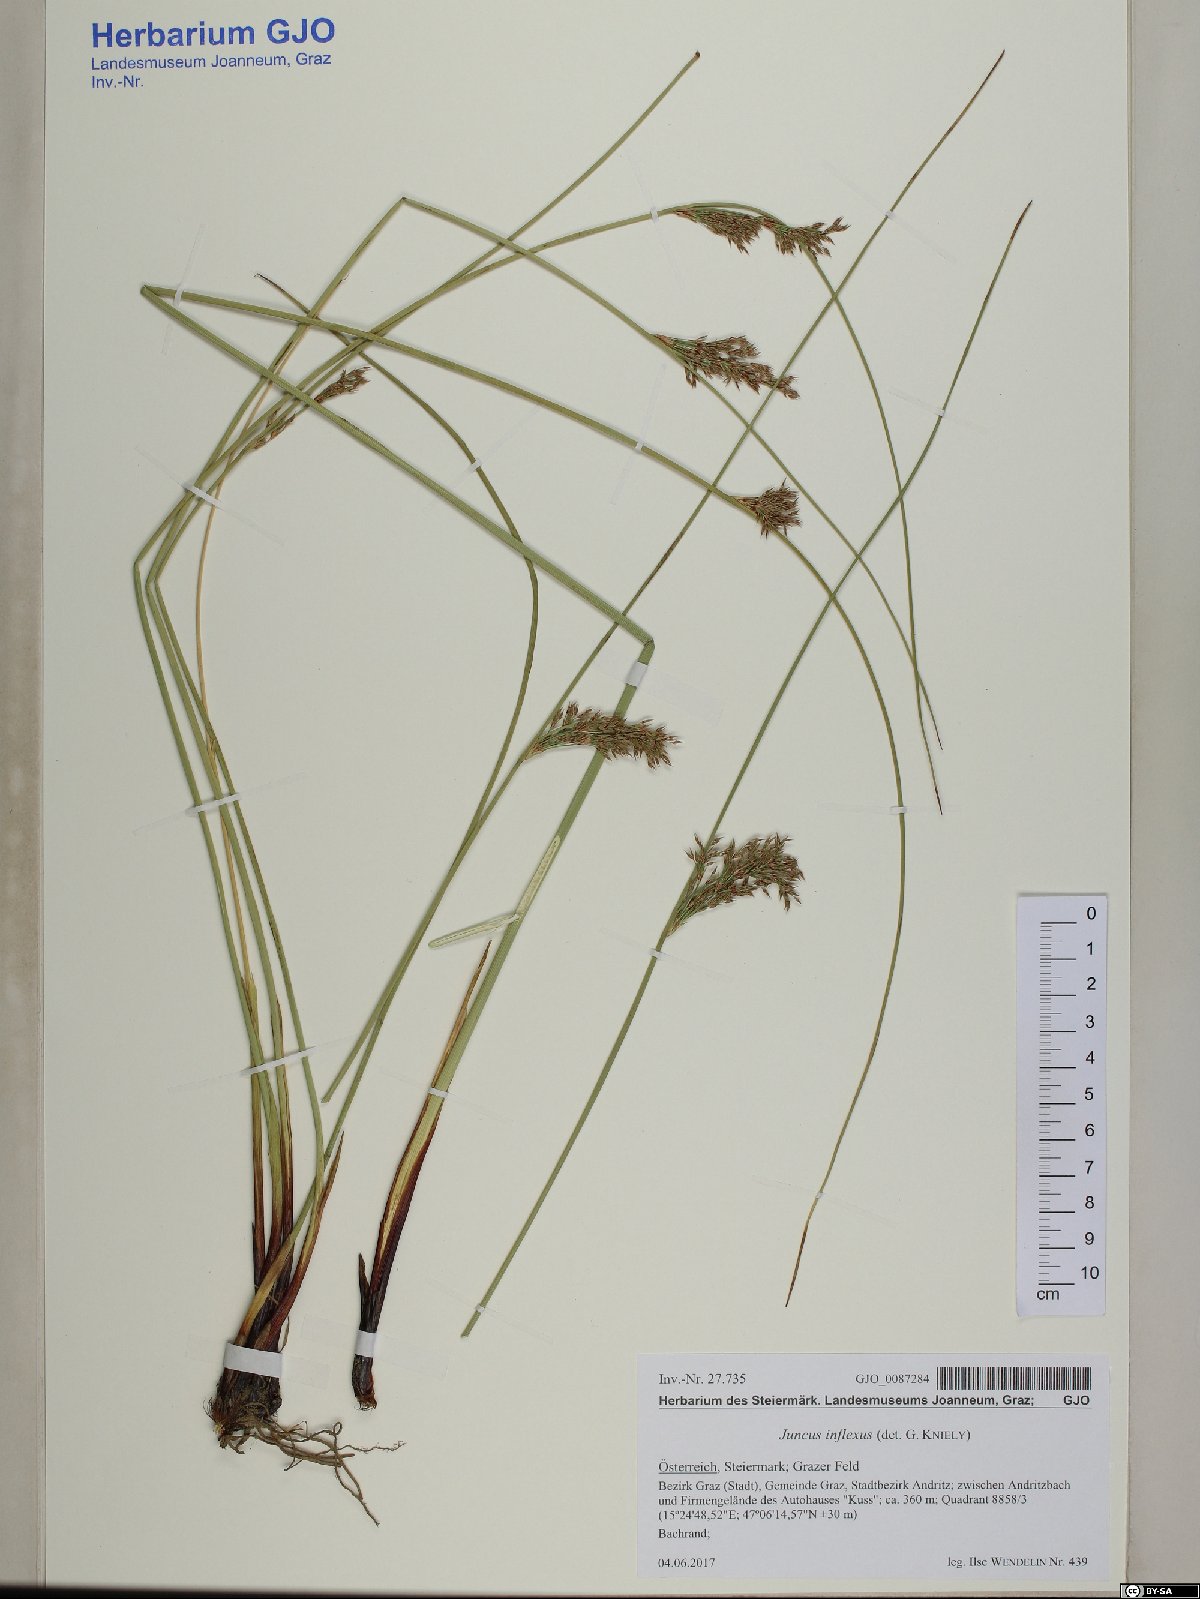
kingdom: Plantae
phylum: Tracheophyta
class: Liliopsida
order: Poales
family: Juncaceae
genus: Juncus
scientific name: Juncus inflexus
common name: Hard rush
